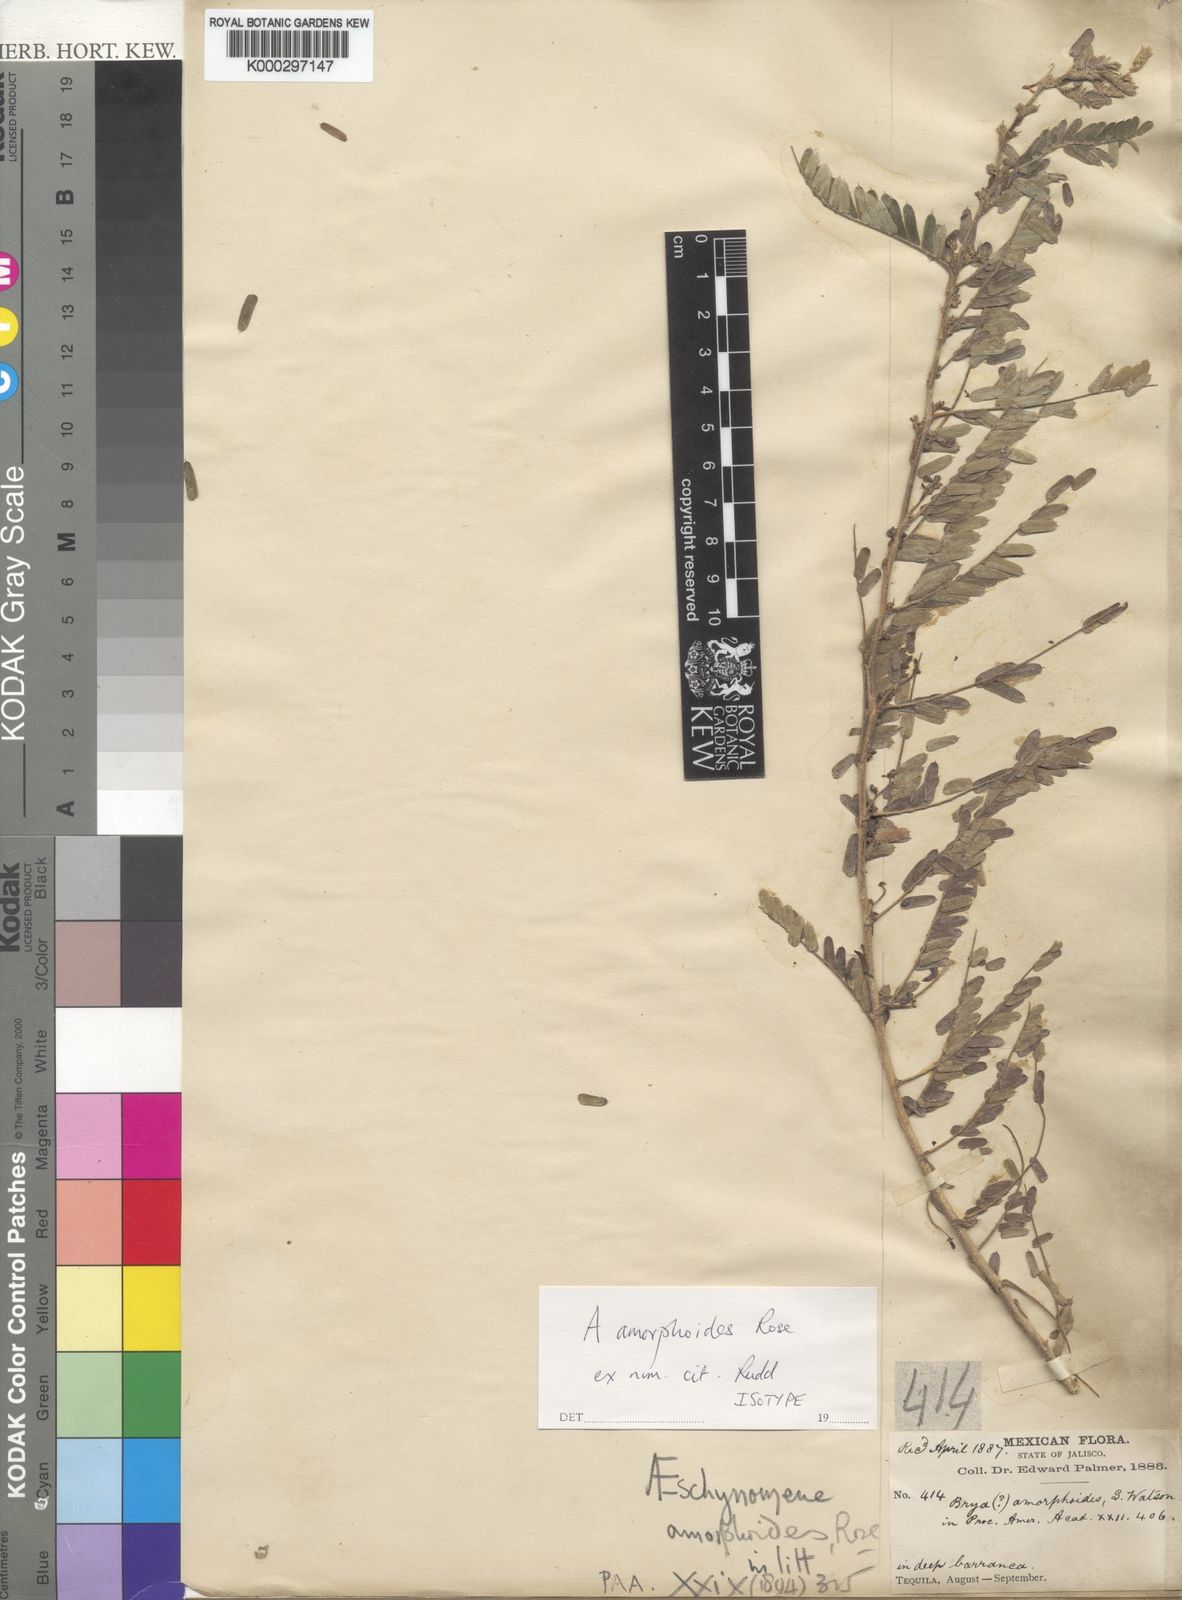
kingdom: Plantae
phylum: Tracheophyta
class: Magnoliopsida
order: Fabales
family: Fabaceae
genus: Ctenodon
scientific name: Ctenodon mucronulatus
